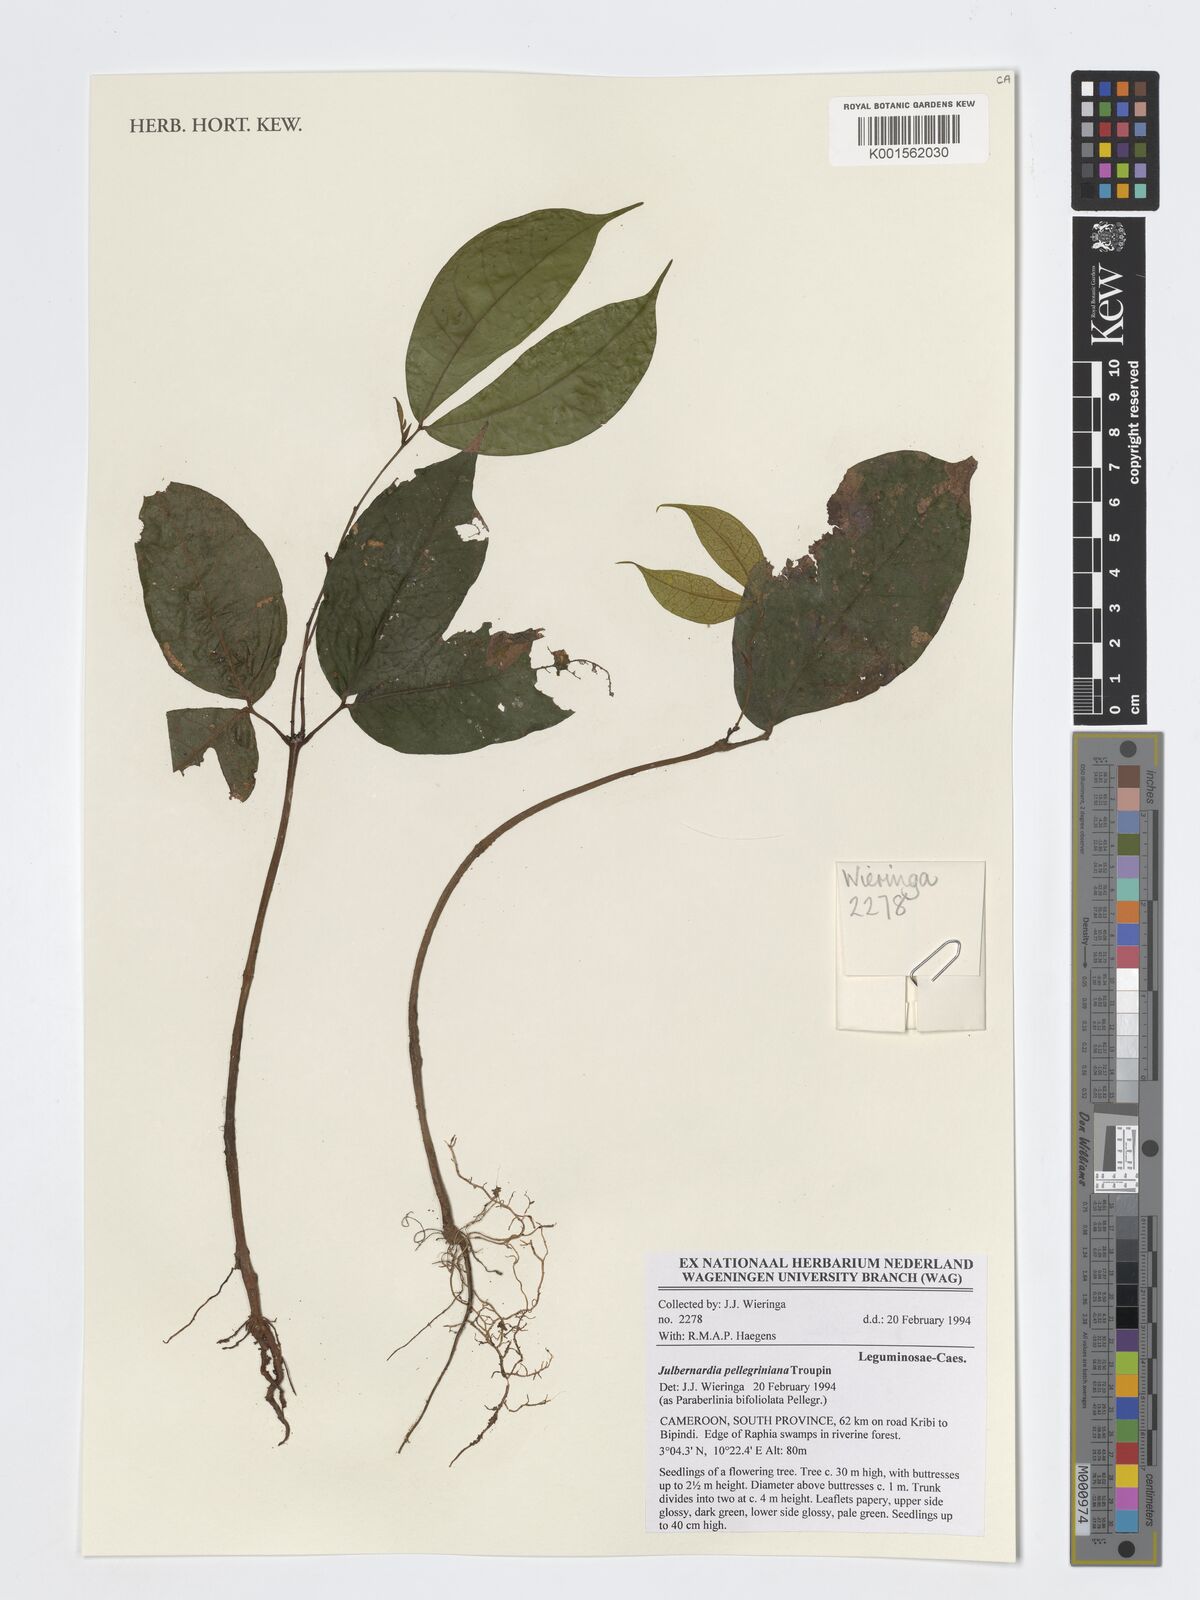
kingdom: Plantae
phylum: Tracheophyta
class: Magnoliopsida
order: Fabales
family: Fabaceae
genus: Julbernardia
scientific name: Julbernardia pellegriniana
